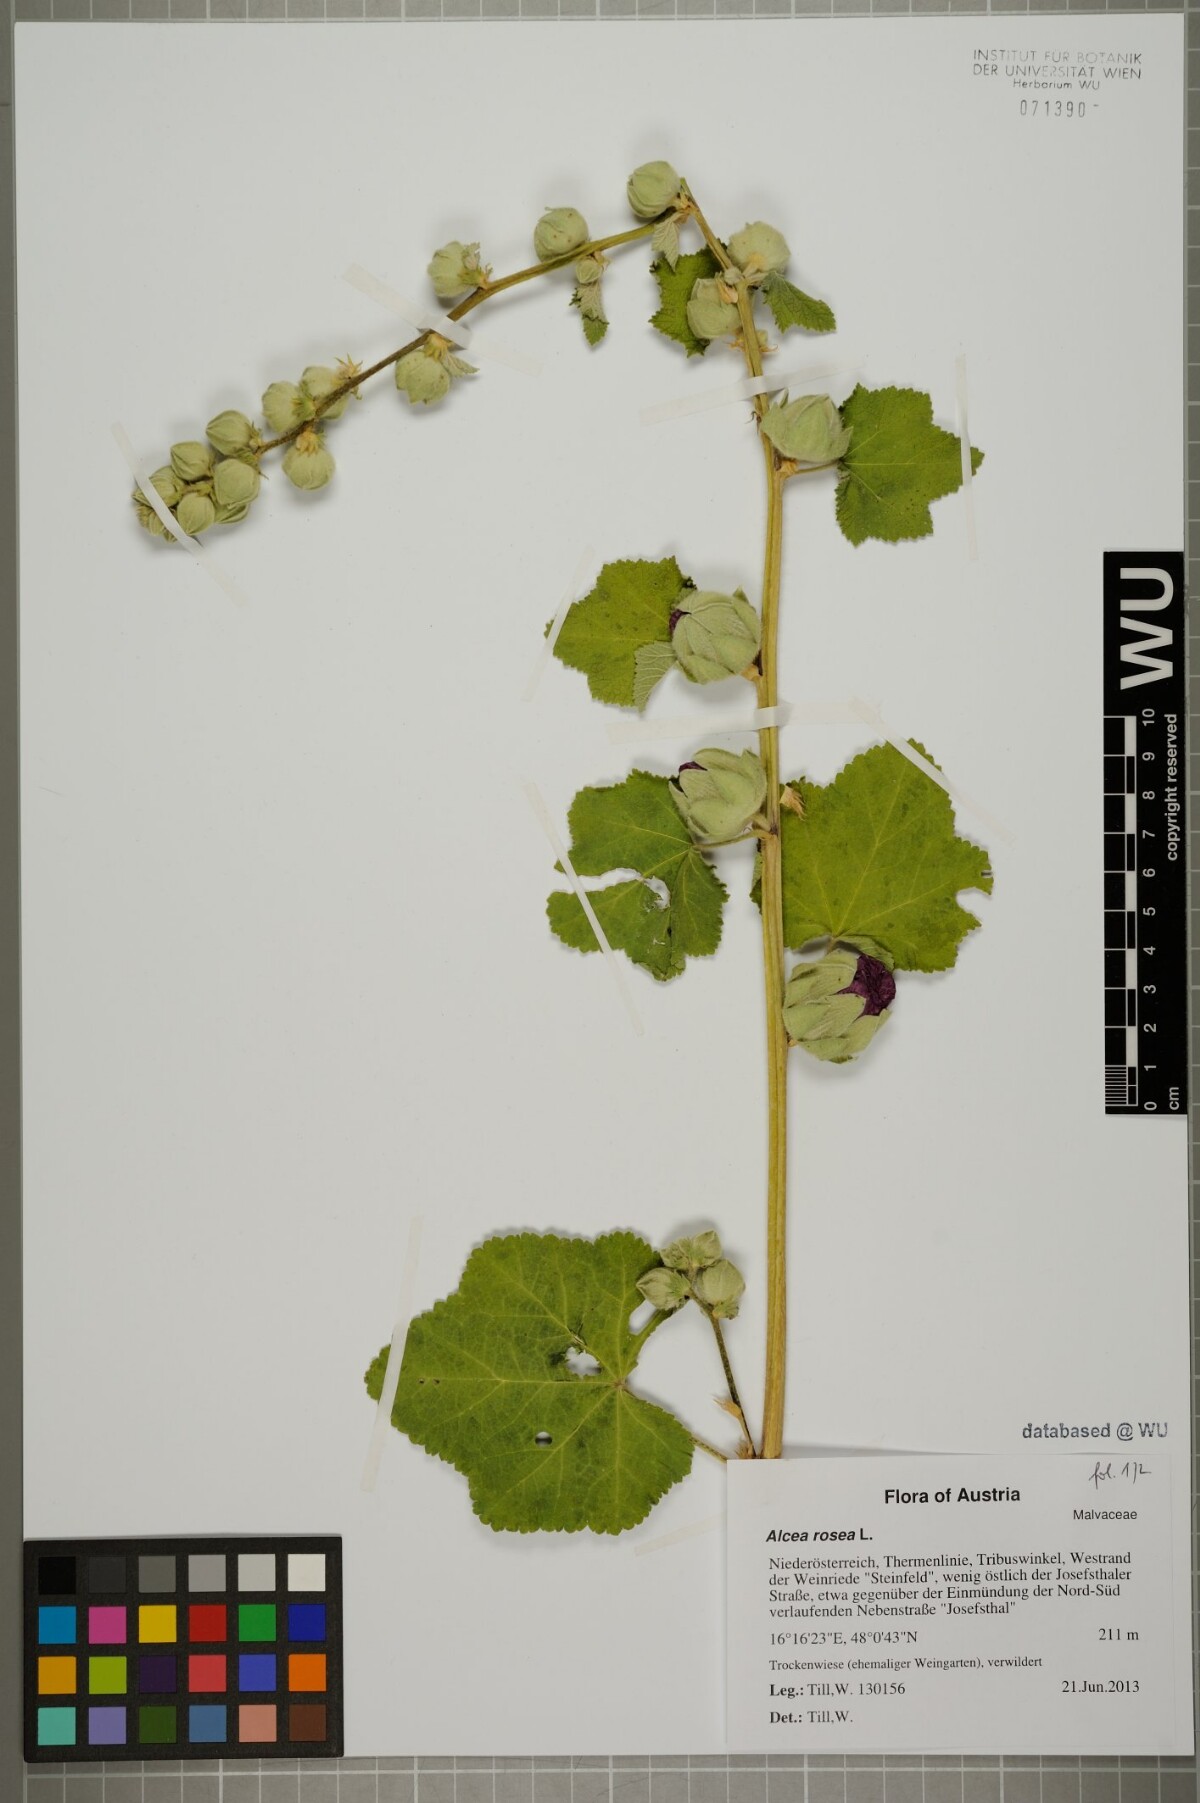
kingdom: Plantae
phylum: Tracheophyta
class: Magnoliopsida
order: Malvales
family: Malvaceae
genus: Alcea
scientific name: Alcea rosea
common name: Hollyhock
